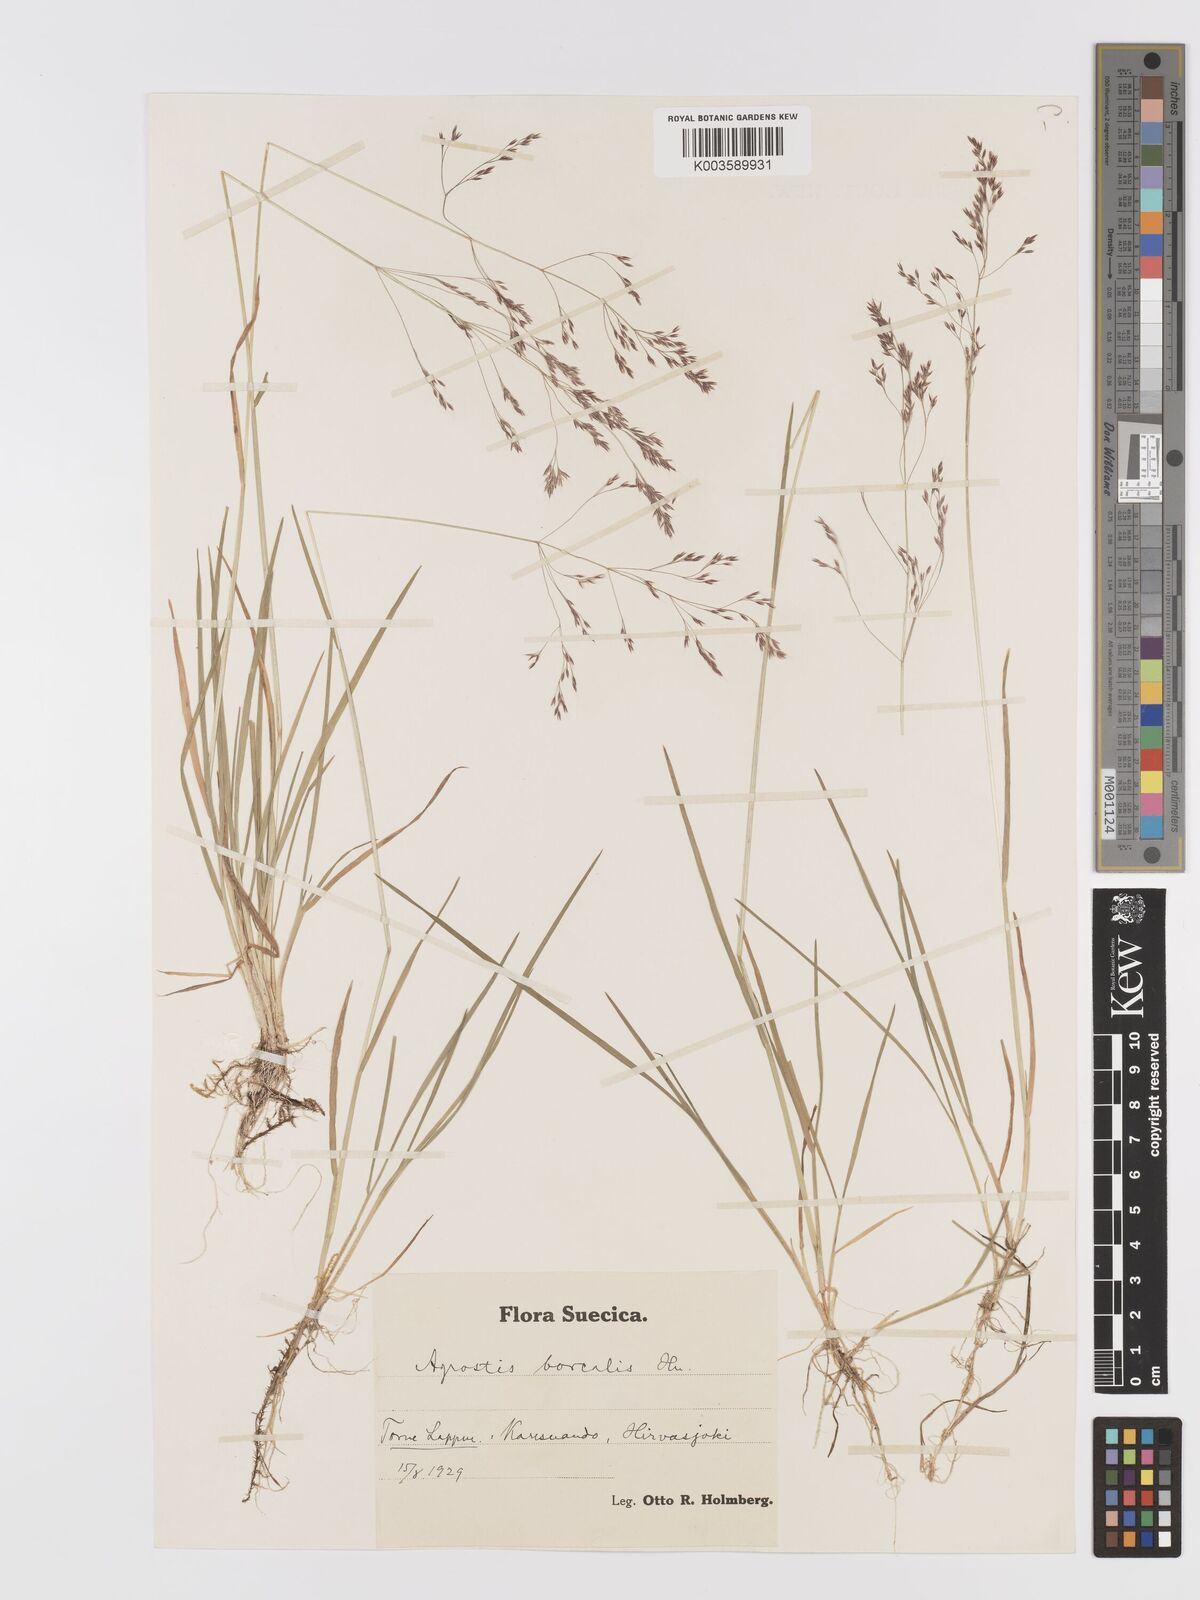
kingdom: Plantae
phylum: Tracheophyta
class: Liliopsida
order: Poales
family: Poaceae
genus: Agrostis
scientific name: Agrostis mertensii
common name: Northern bent
